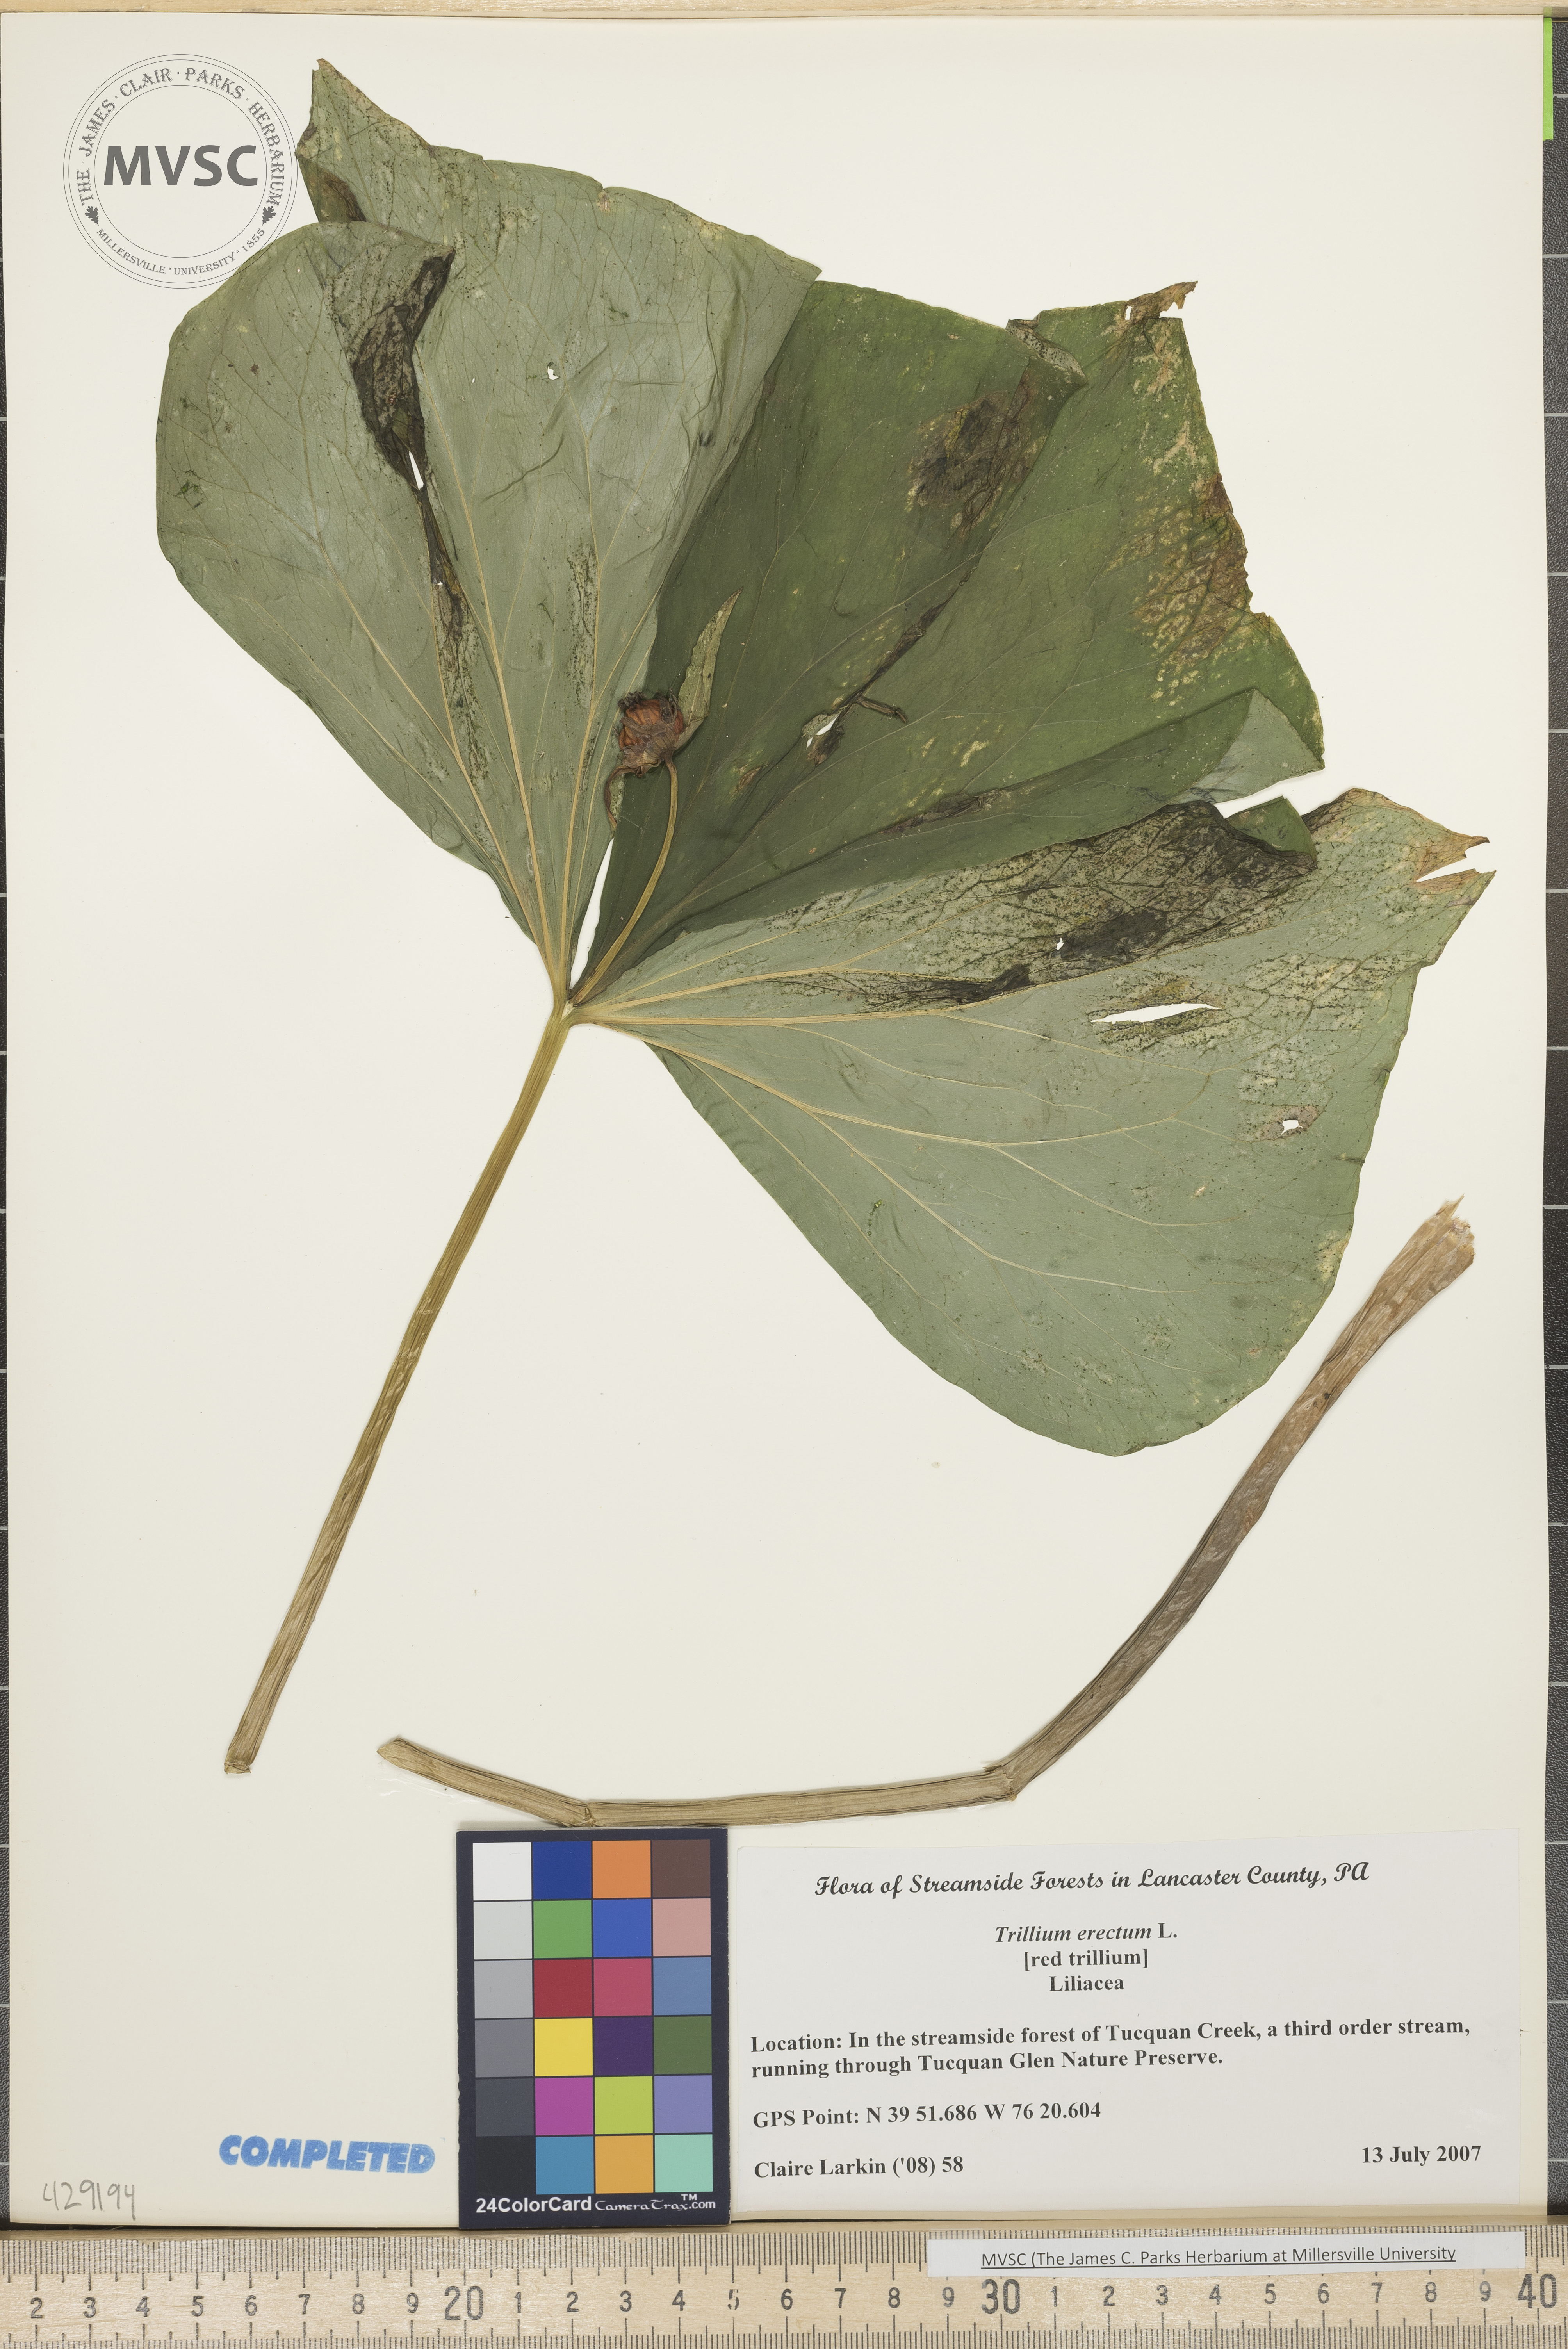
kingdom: Plantae
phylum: Tracheophyta
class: Liliopsida
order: Liliales
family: Melanthiaceae
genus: Trillium
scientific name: Trillium erectum
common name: Red trillium
